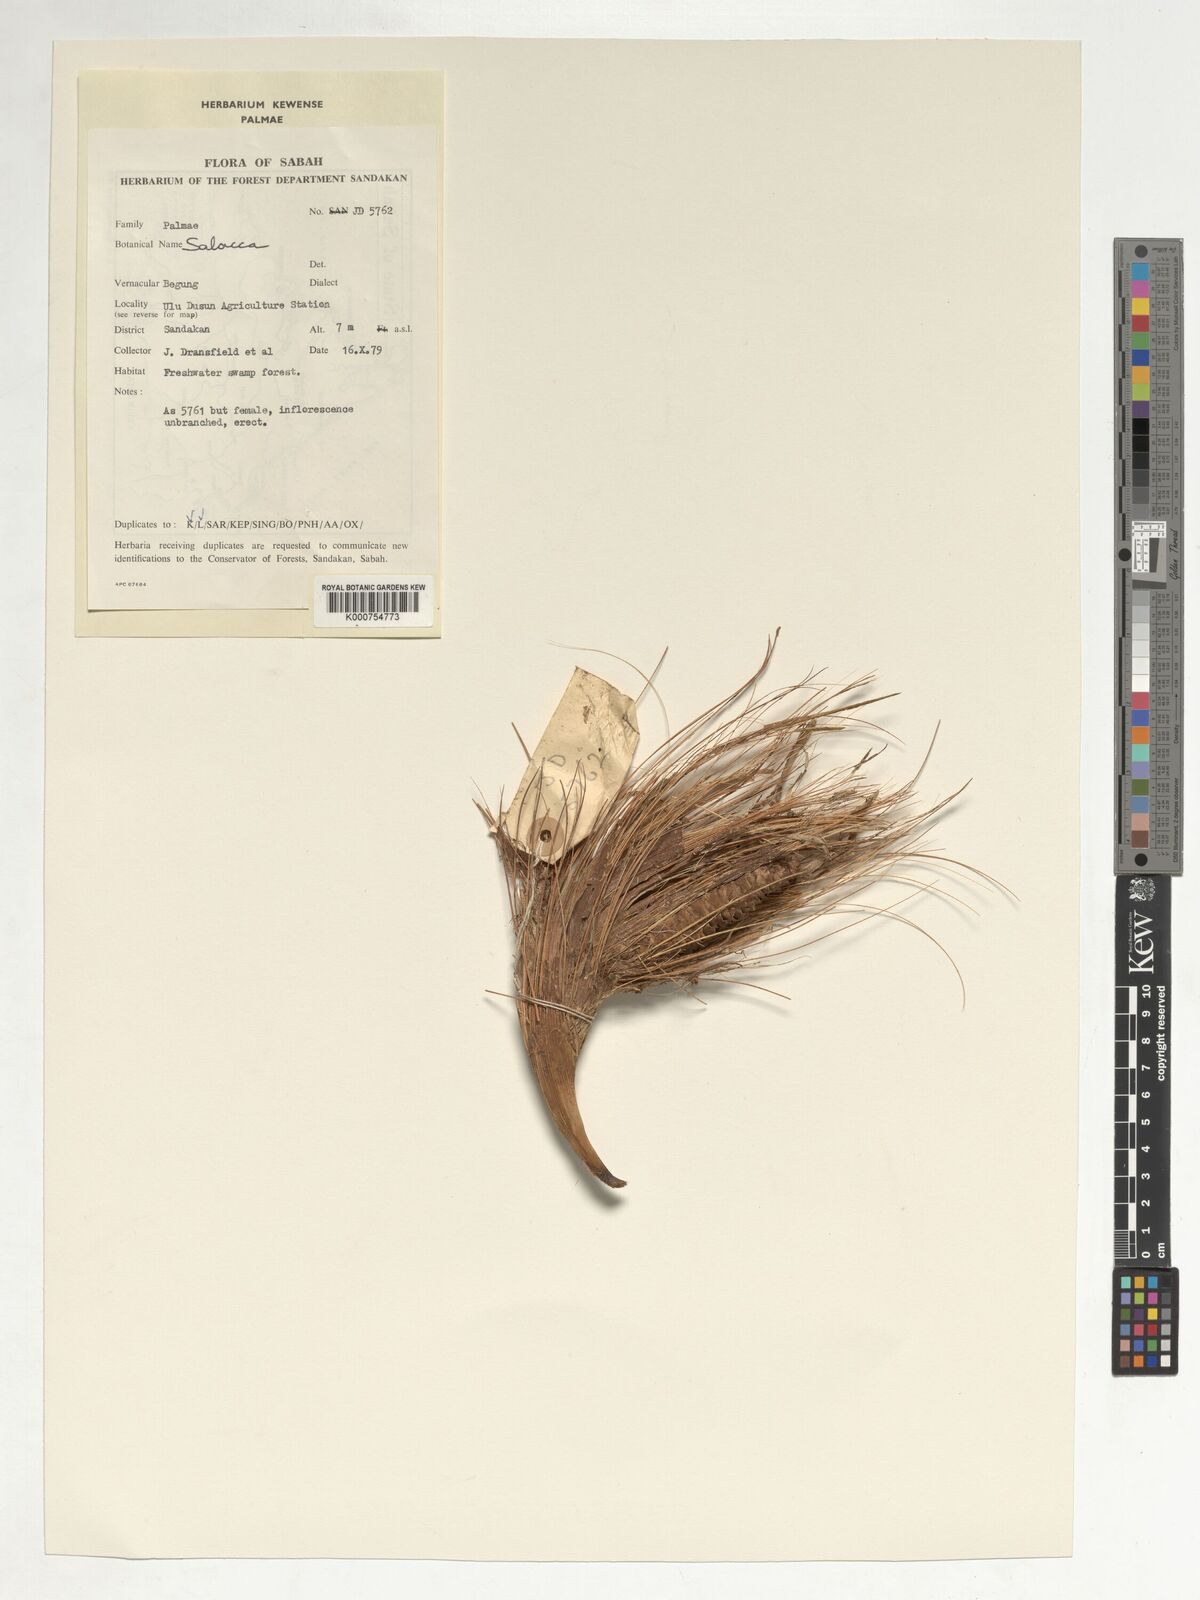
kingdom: Plantae
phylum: Tracheophyta
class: Liliopsida
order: Arecales
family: Arecaceae
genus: Salacca
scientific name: Salacca
